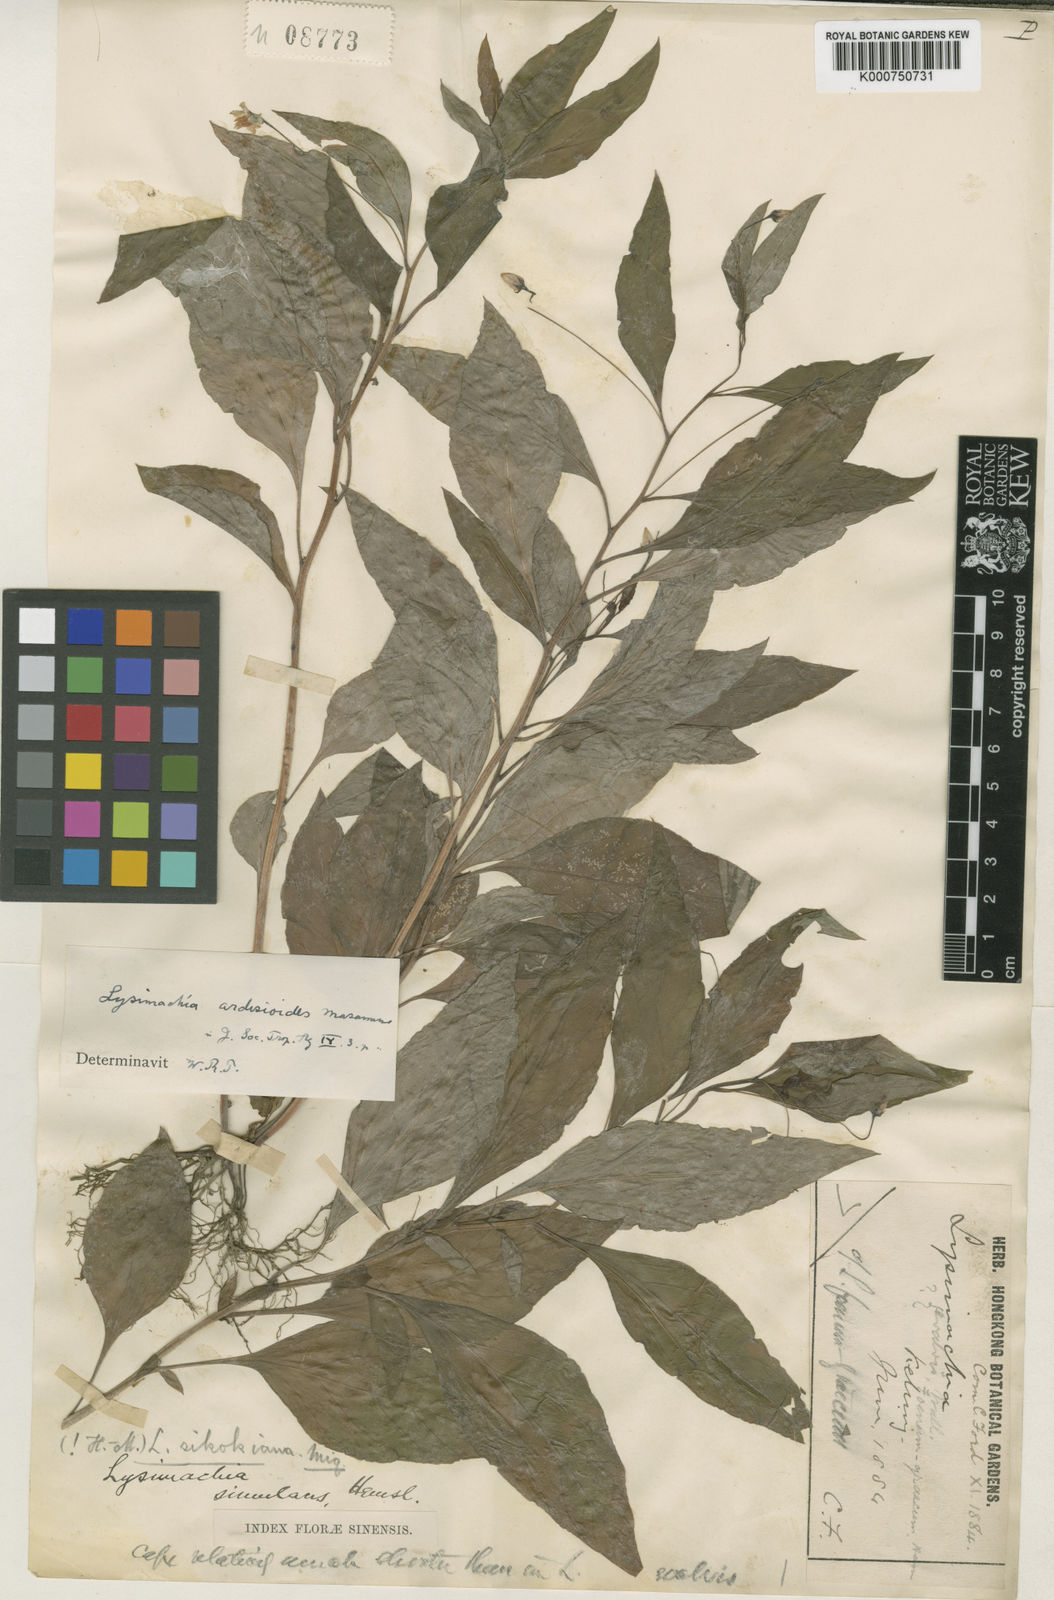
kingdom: Plantae
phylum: Tracheophyta
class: Magnoliopsida
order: Ericales
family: Primulaceae
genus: Lysimachia
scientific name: Lysimachia sikokiana
